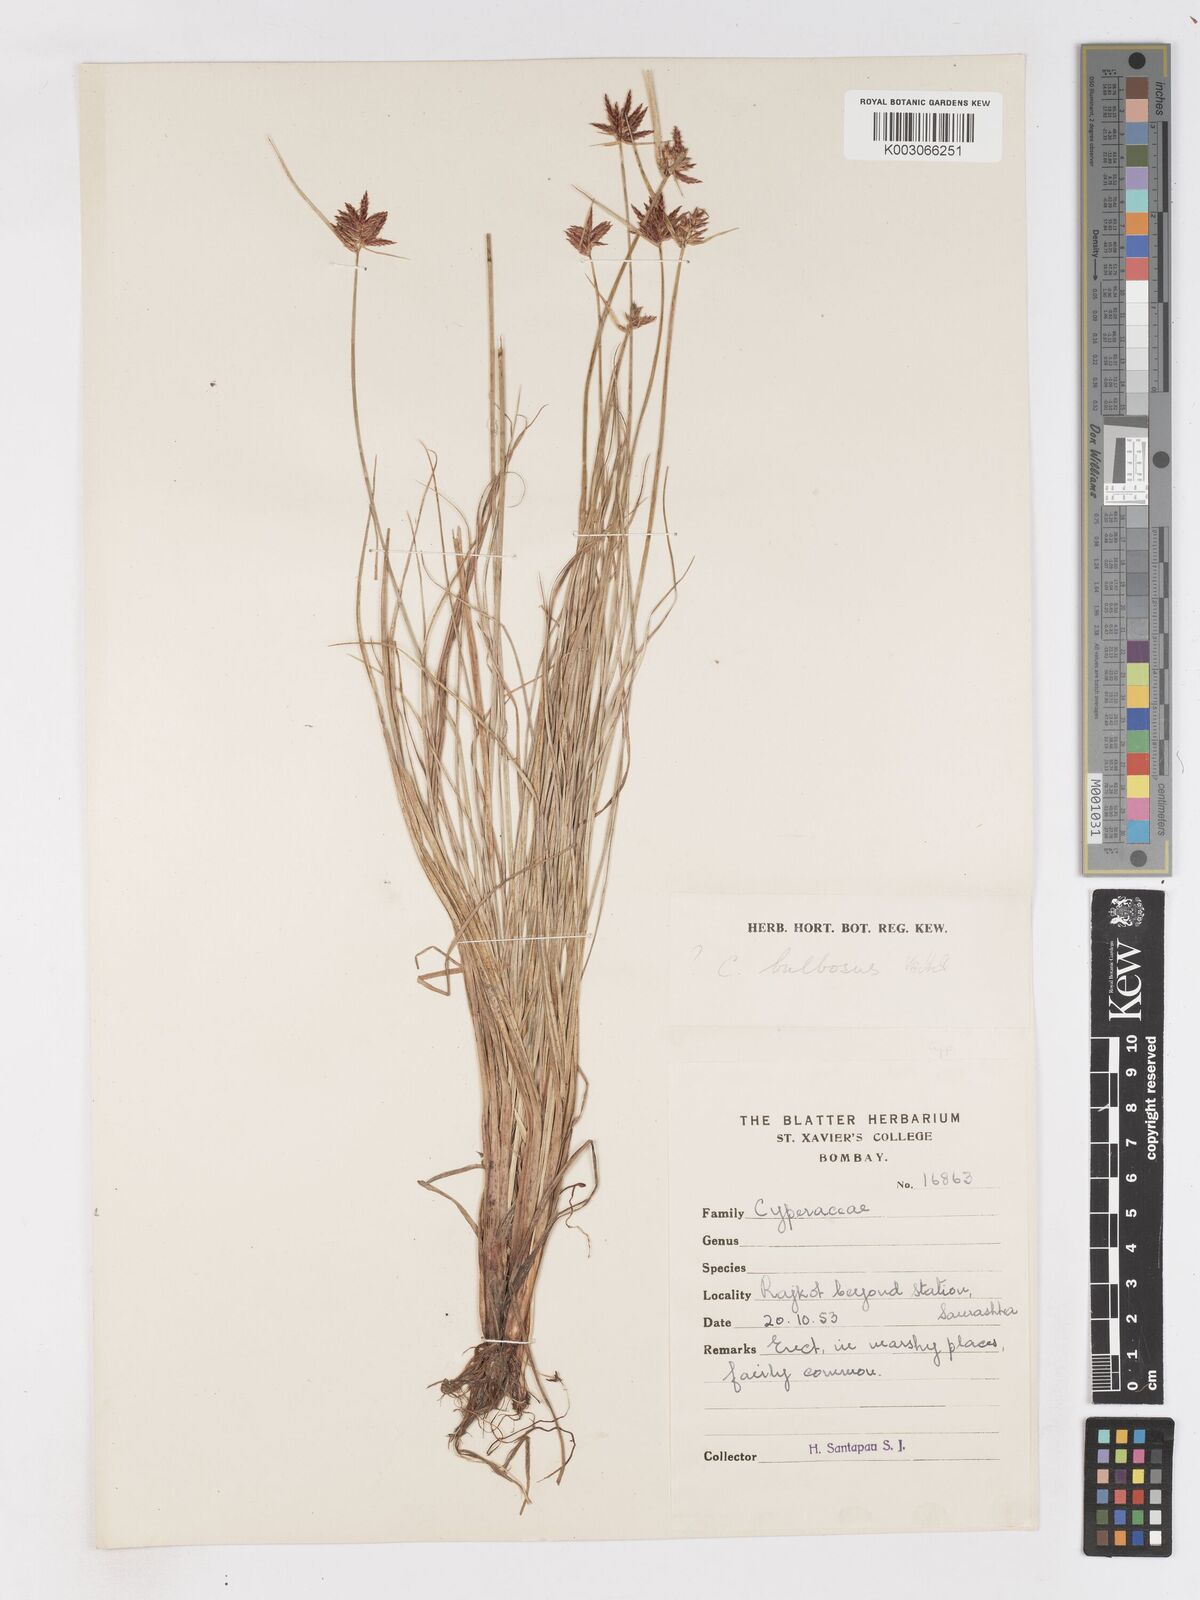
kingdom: Plantae
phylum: Tracheophyta
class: Liliopsida
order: Poales
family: Cyperaceae
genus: Cyperus
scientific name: Cyperus bulbosus
